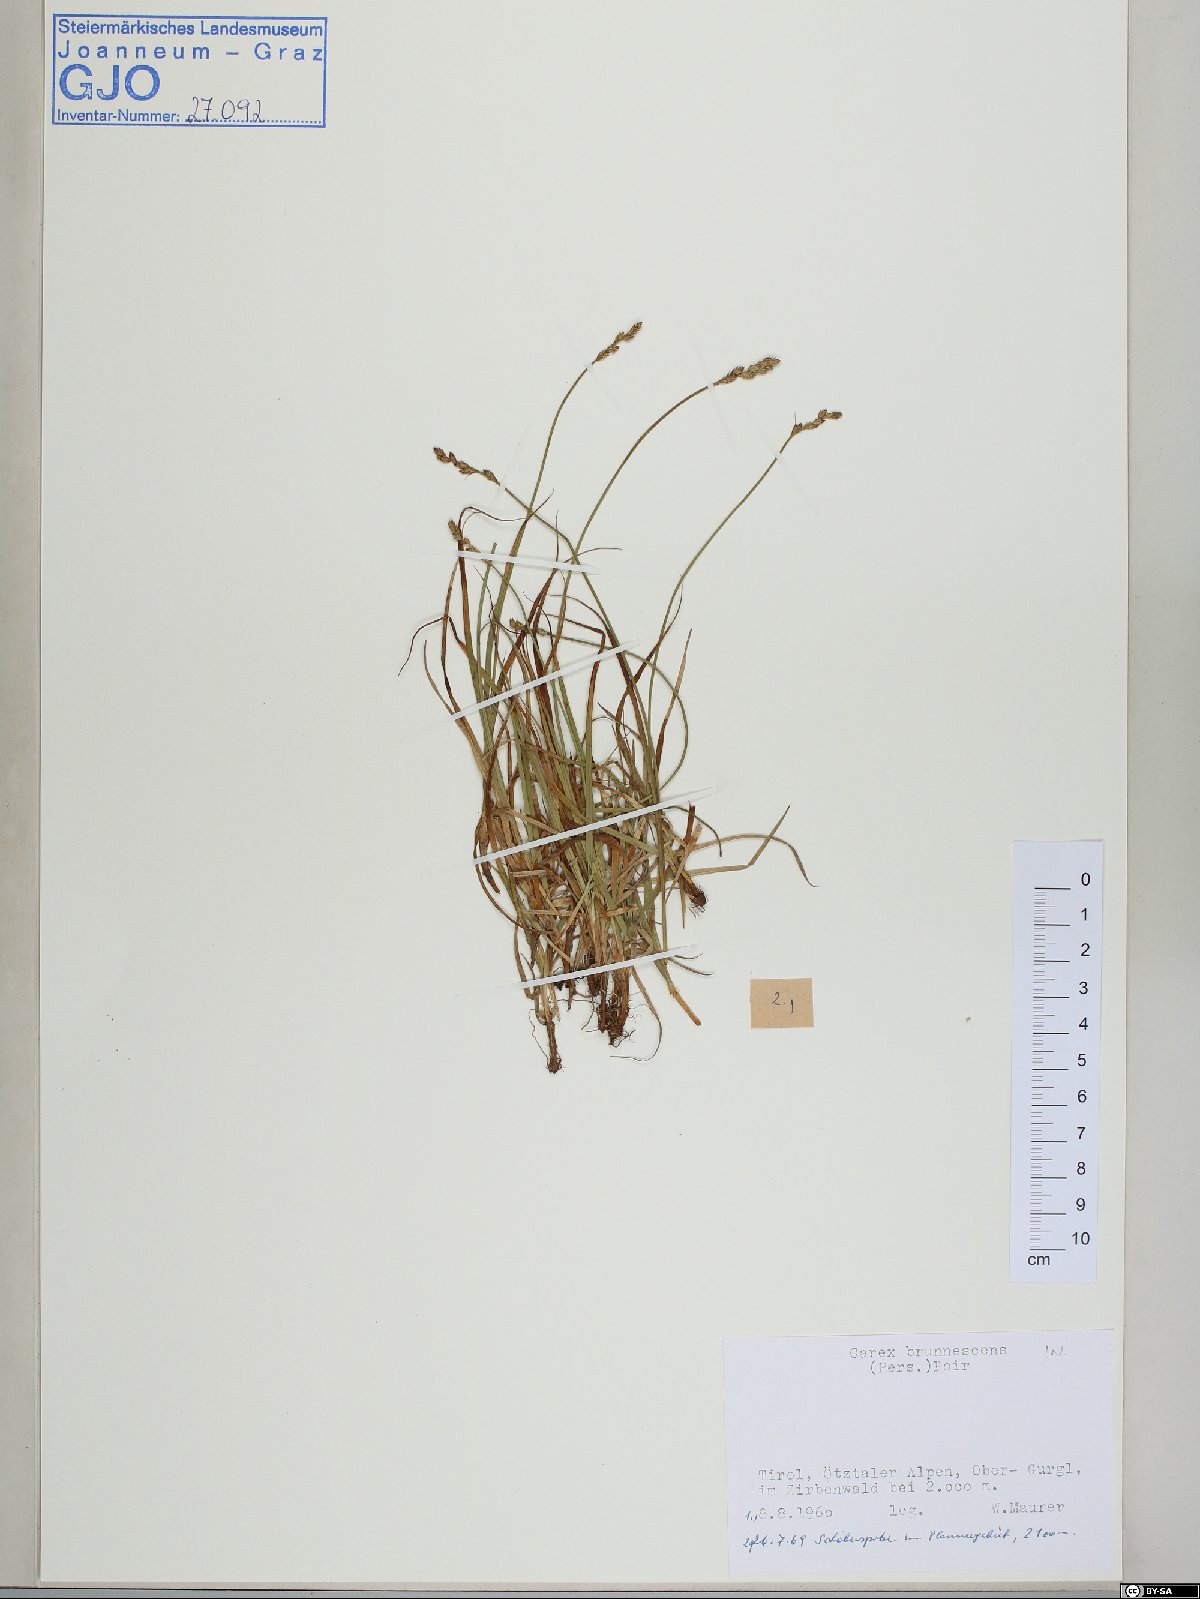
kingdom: Plantae
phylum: Tracheophyta
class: Liliopsida
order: Poales
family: Cyperaceae
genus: Carex
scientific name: Carex brunnescens
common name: Brown sedge
